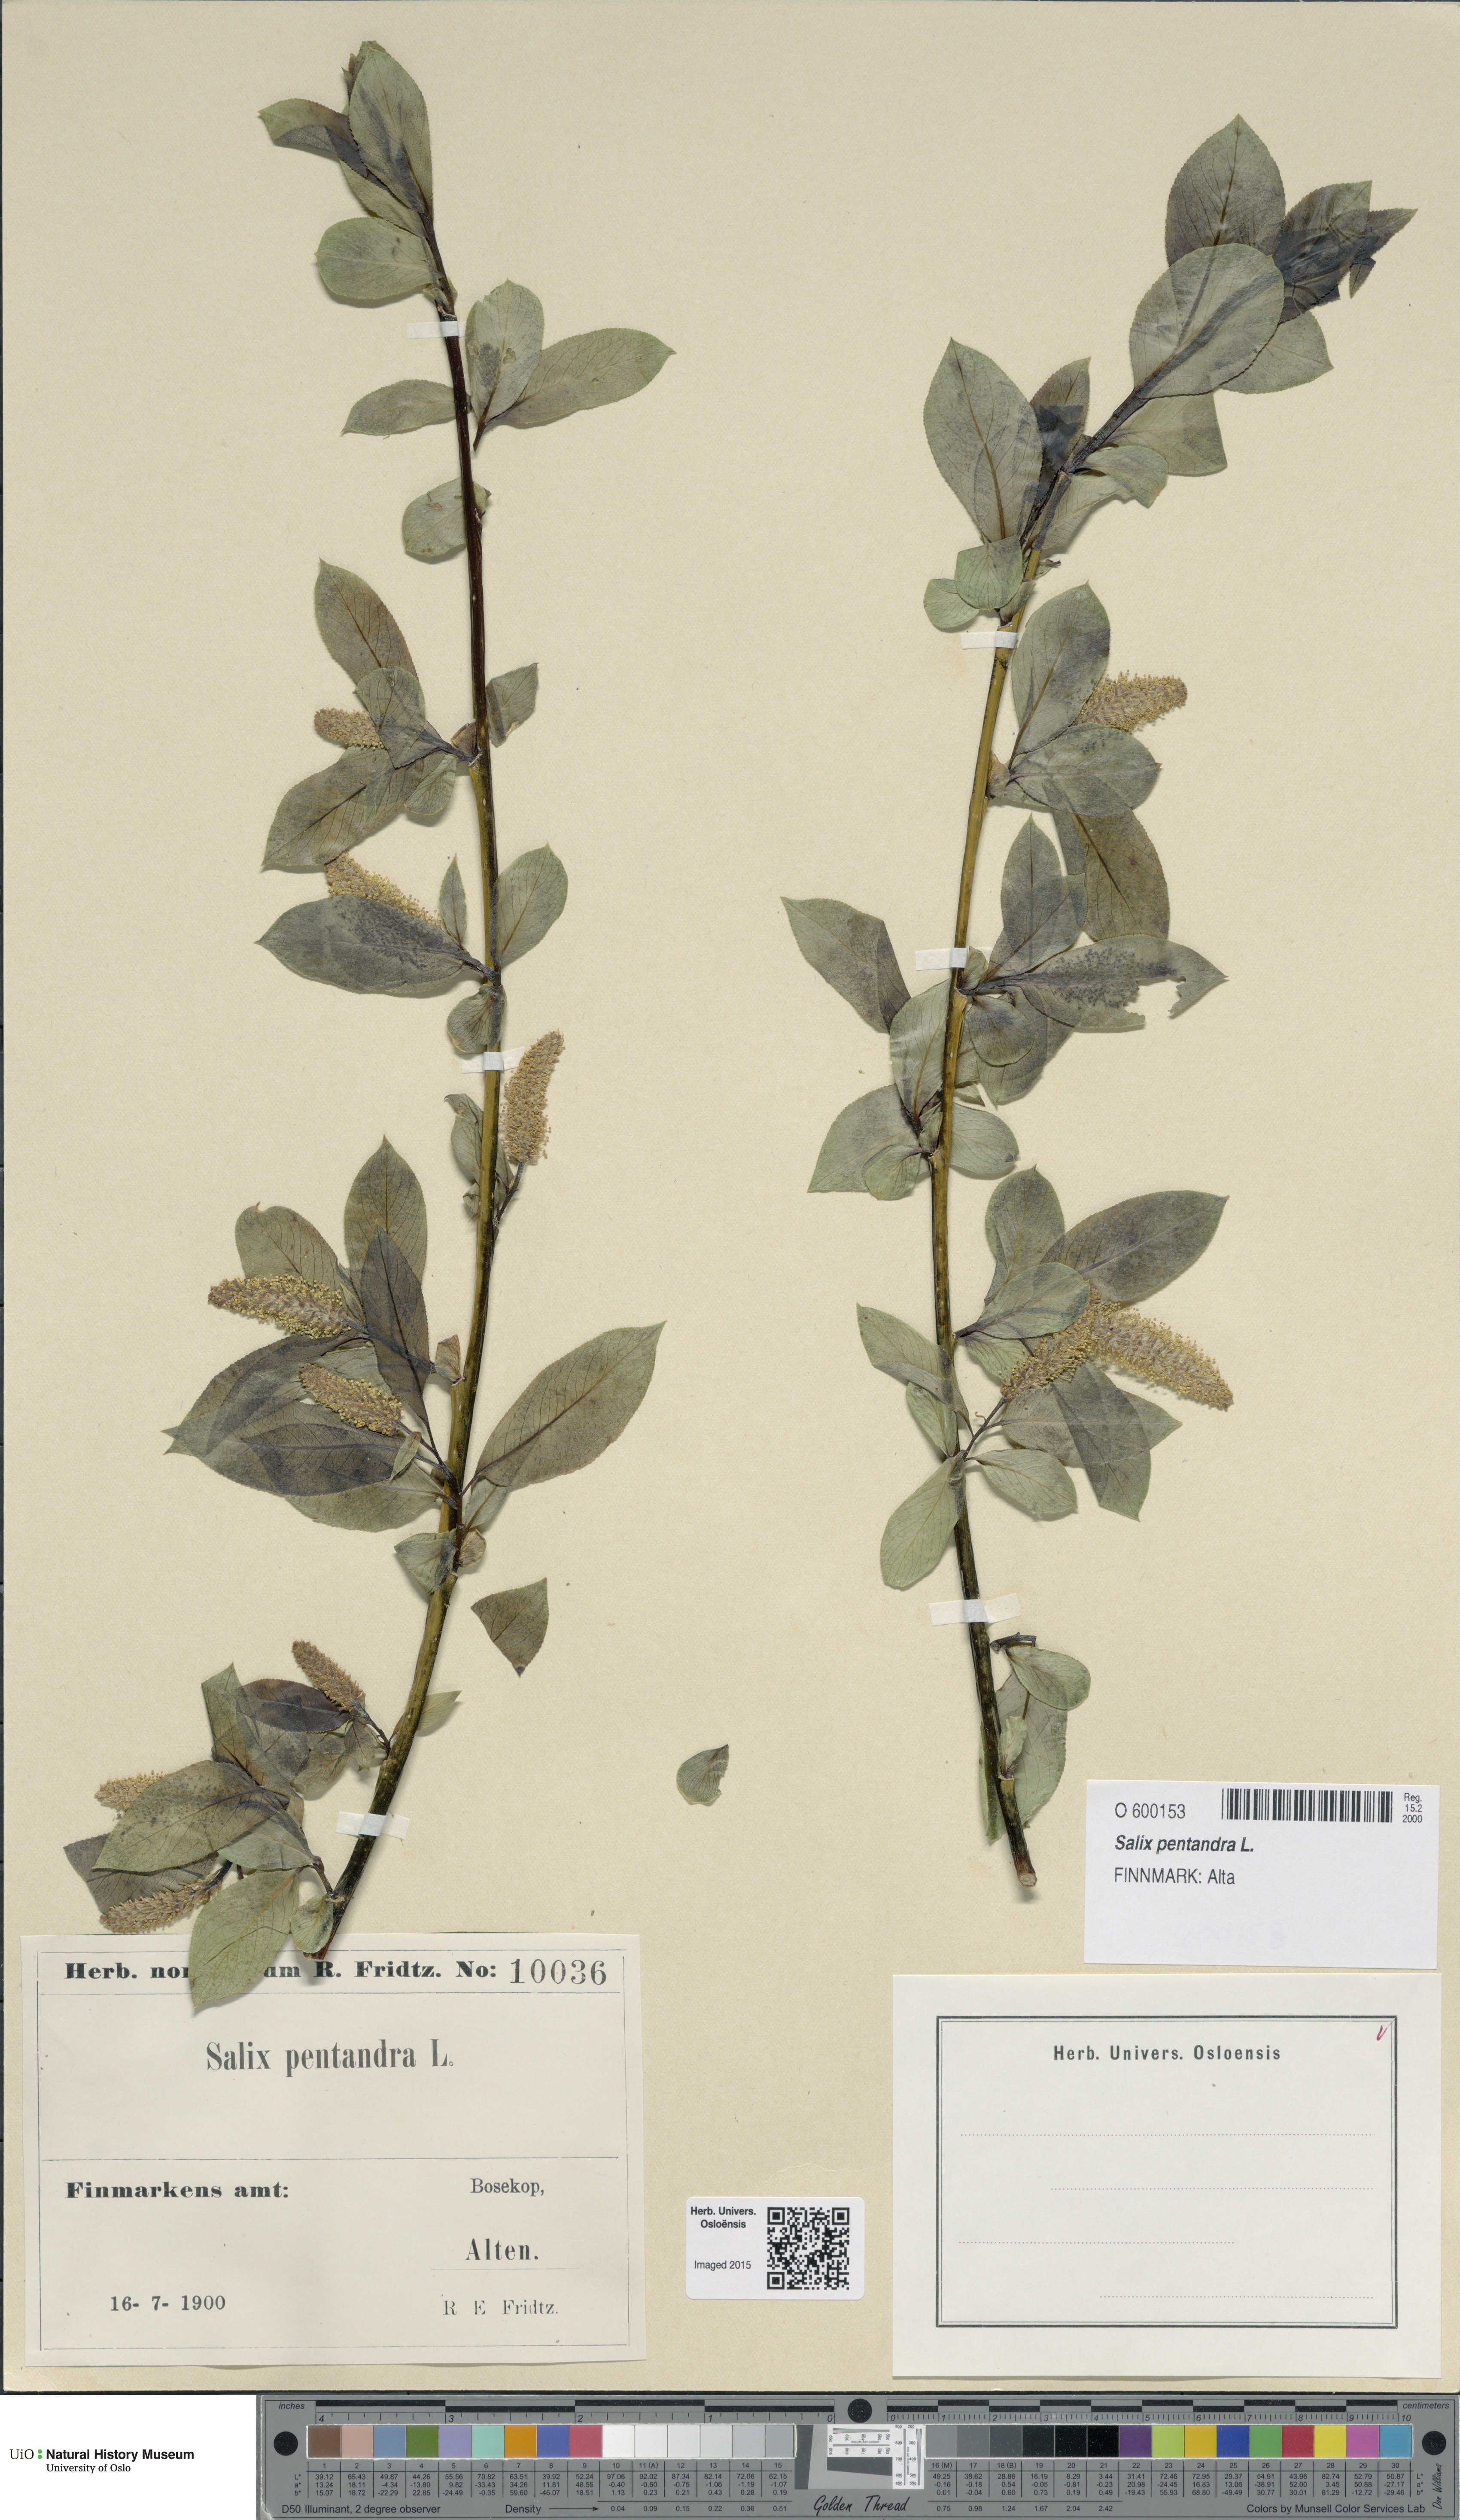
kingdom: Plantae
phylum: Tracheophyta
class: Magnoliopsida
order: Malpighiales
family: Salicaceae
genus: Salix
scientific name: Salix pentandra
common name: Bay willow
